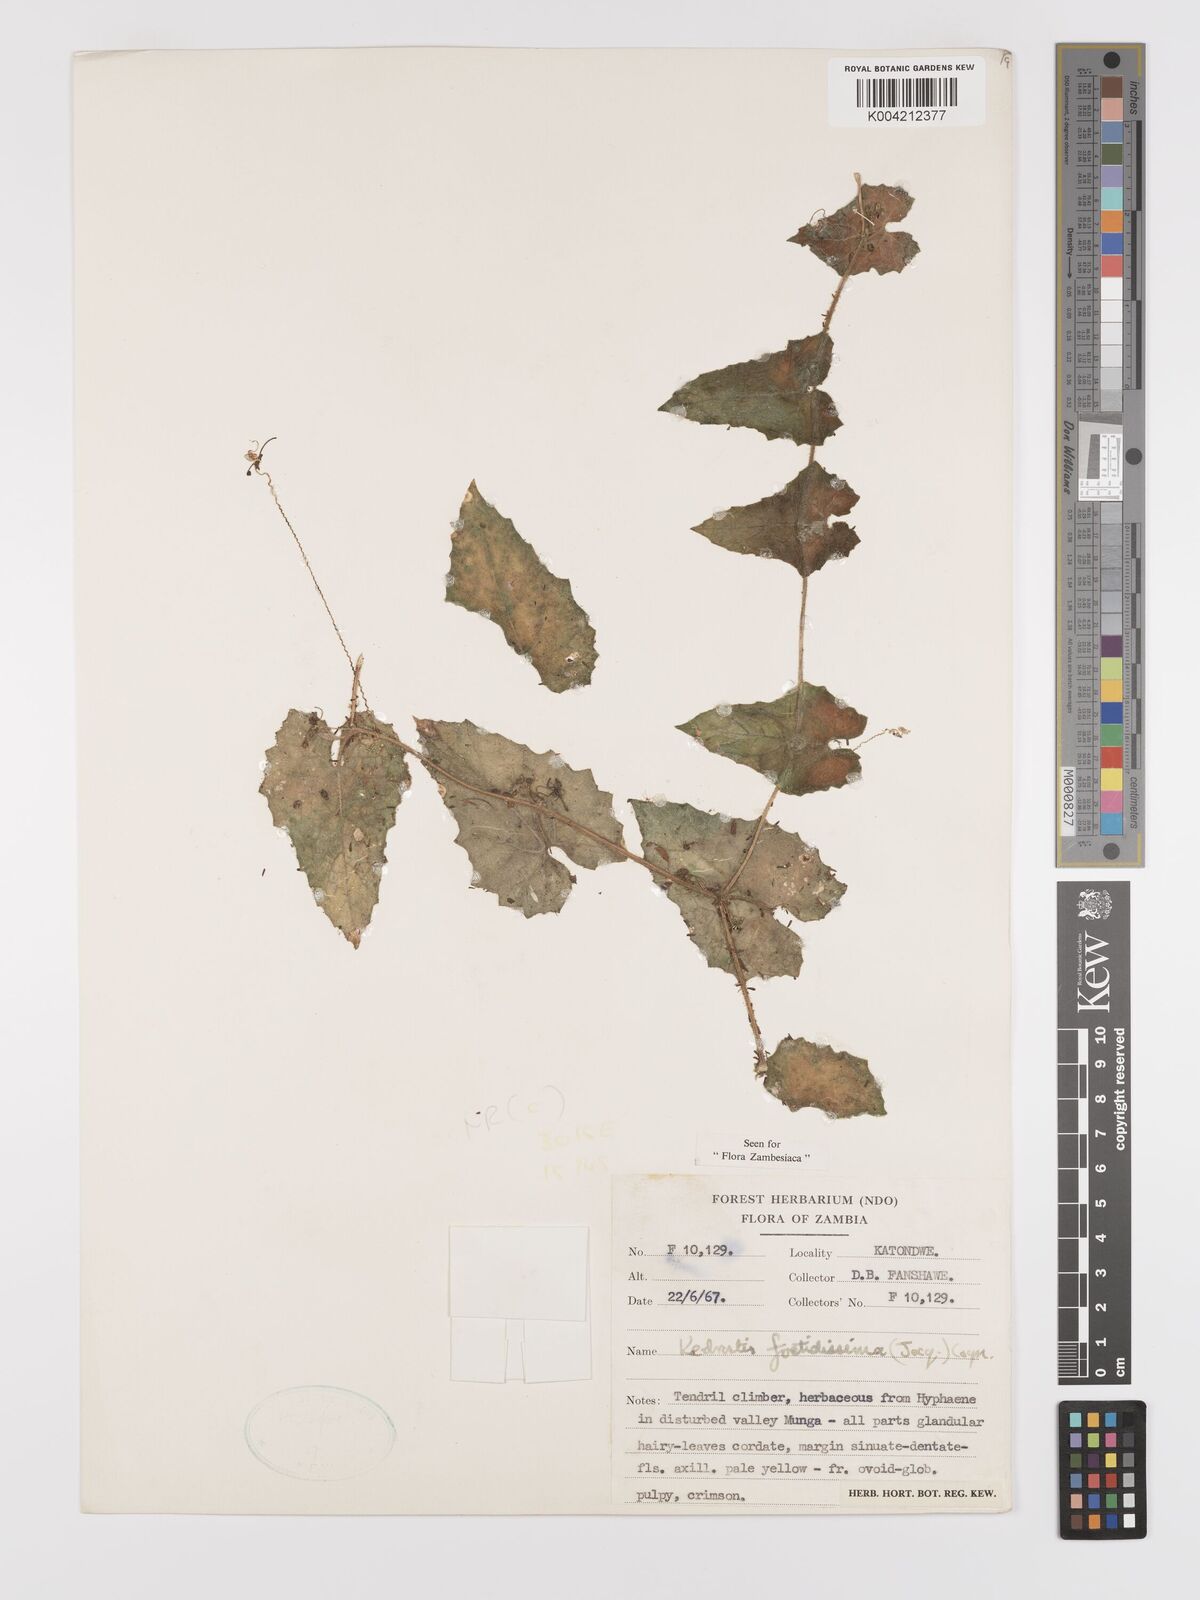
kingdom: Plantae
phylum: Tracheophyta
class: Magnoliopsida
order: Cucurbitales
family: Cucurbitaceae
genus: Kedrostis
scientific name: Kedrostis foetidissima
